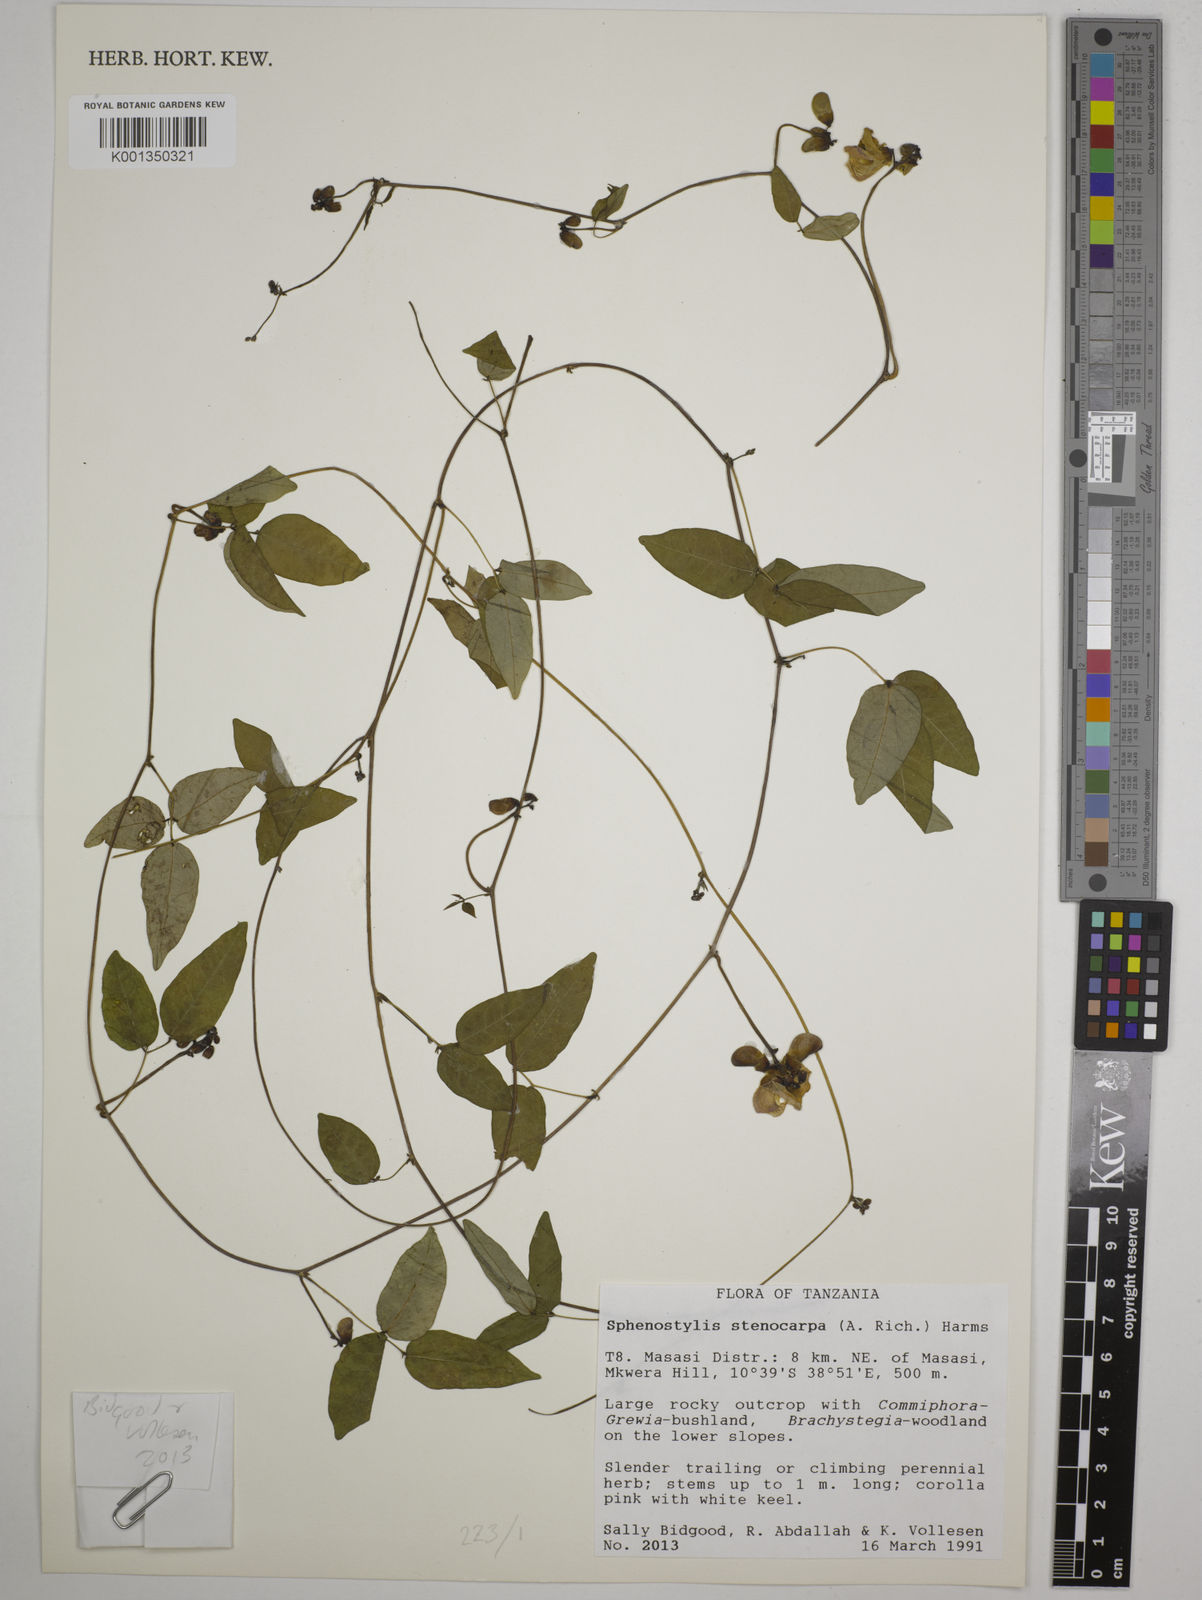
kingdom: Plantae
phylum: Tracheophyta
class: Magnoliopsida
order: Fabales
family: Fabaceae
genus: Sphenostylis
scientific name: Sphenostylis stenocarpa
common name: Yam-pea
